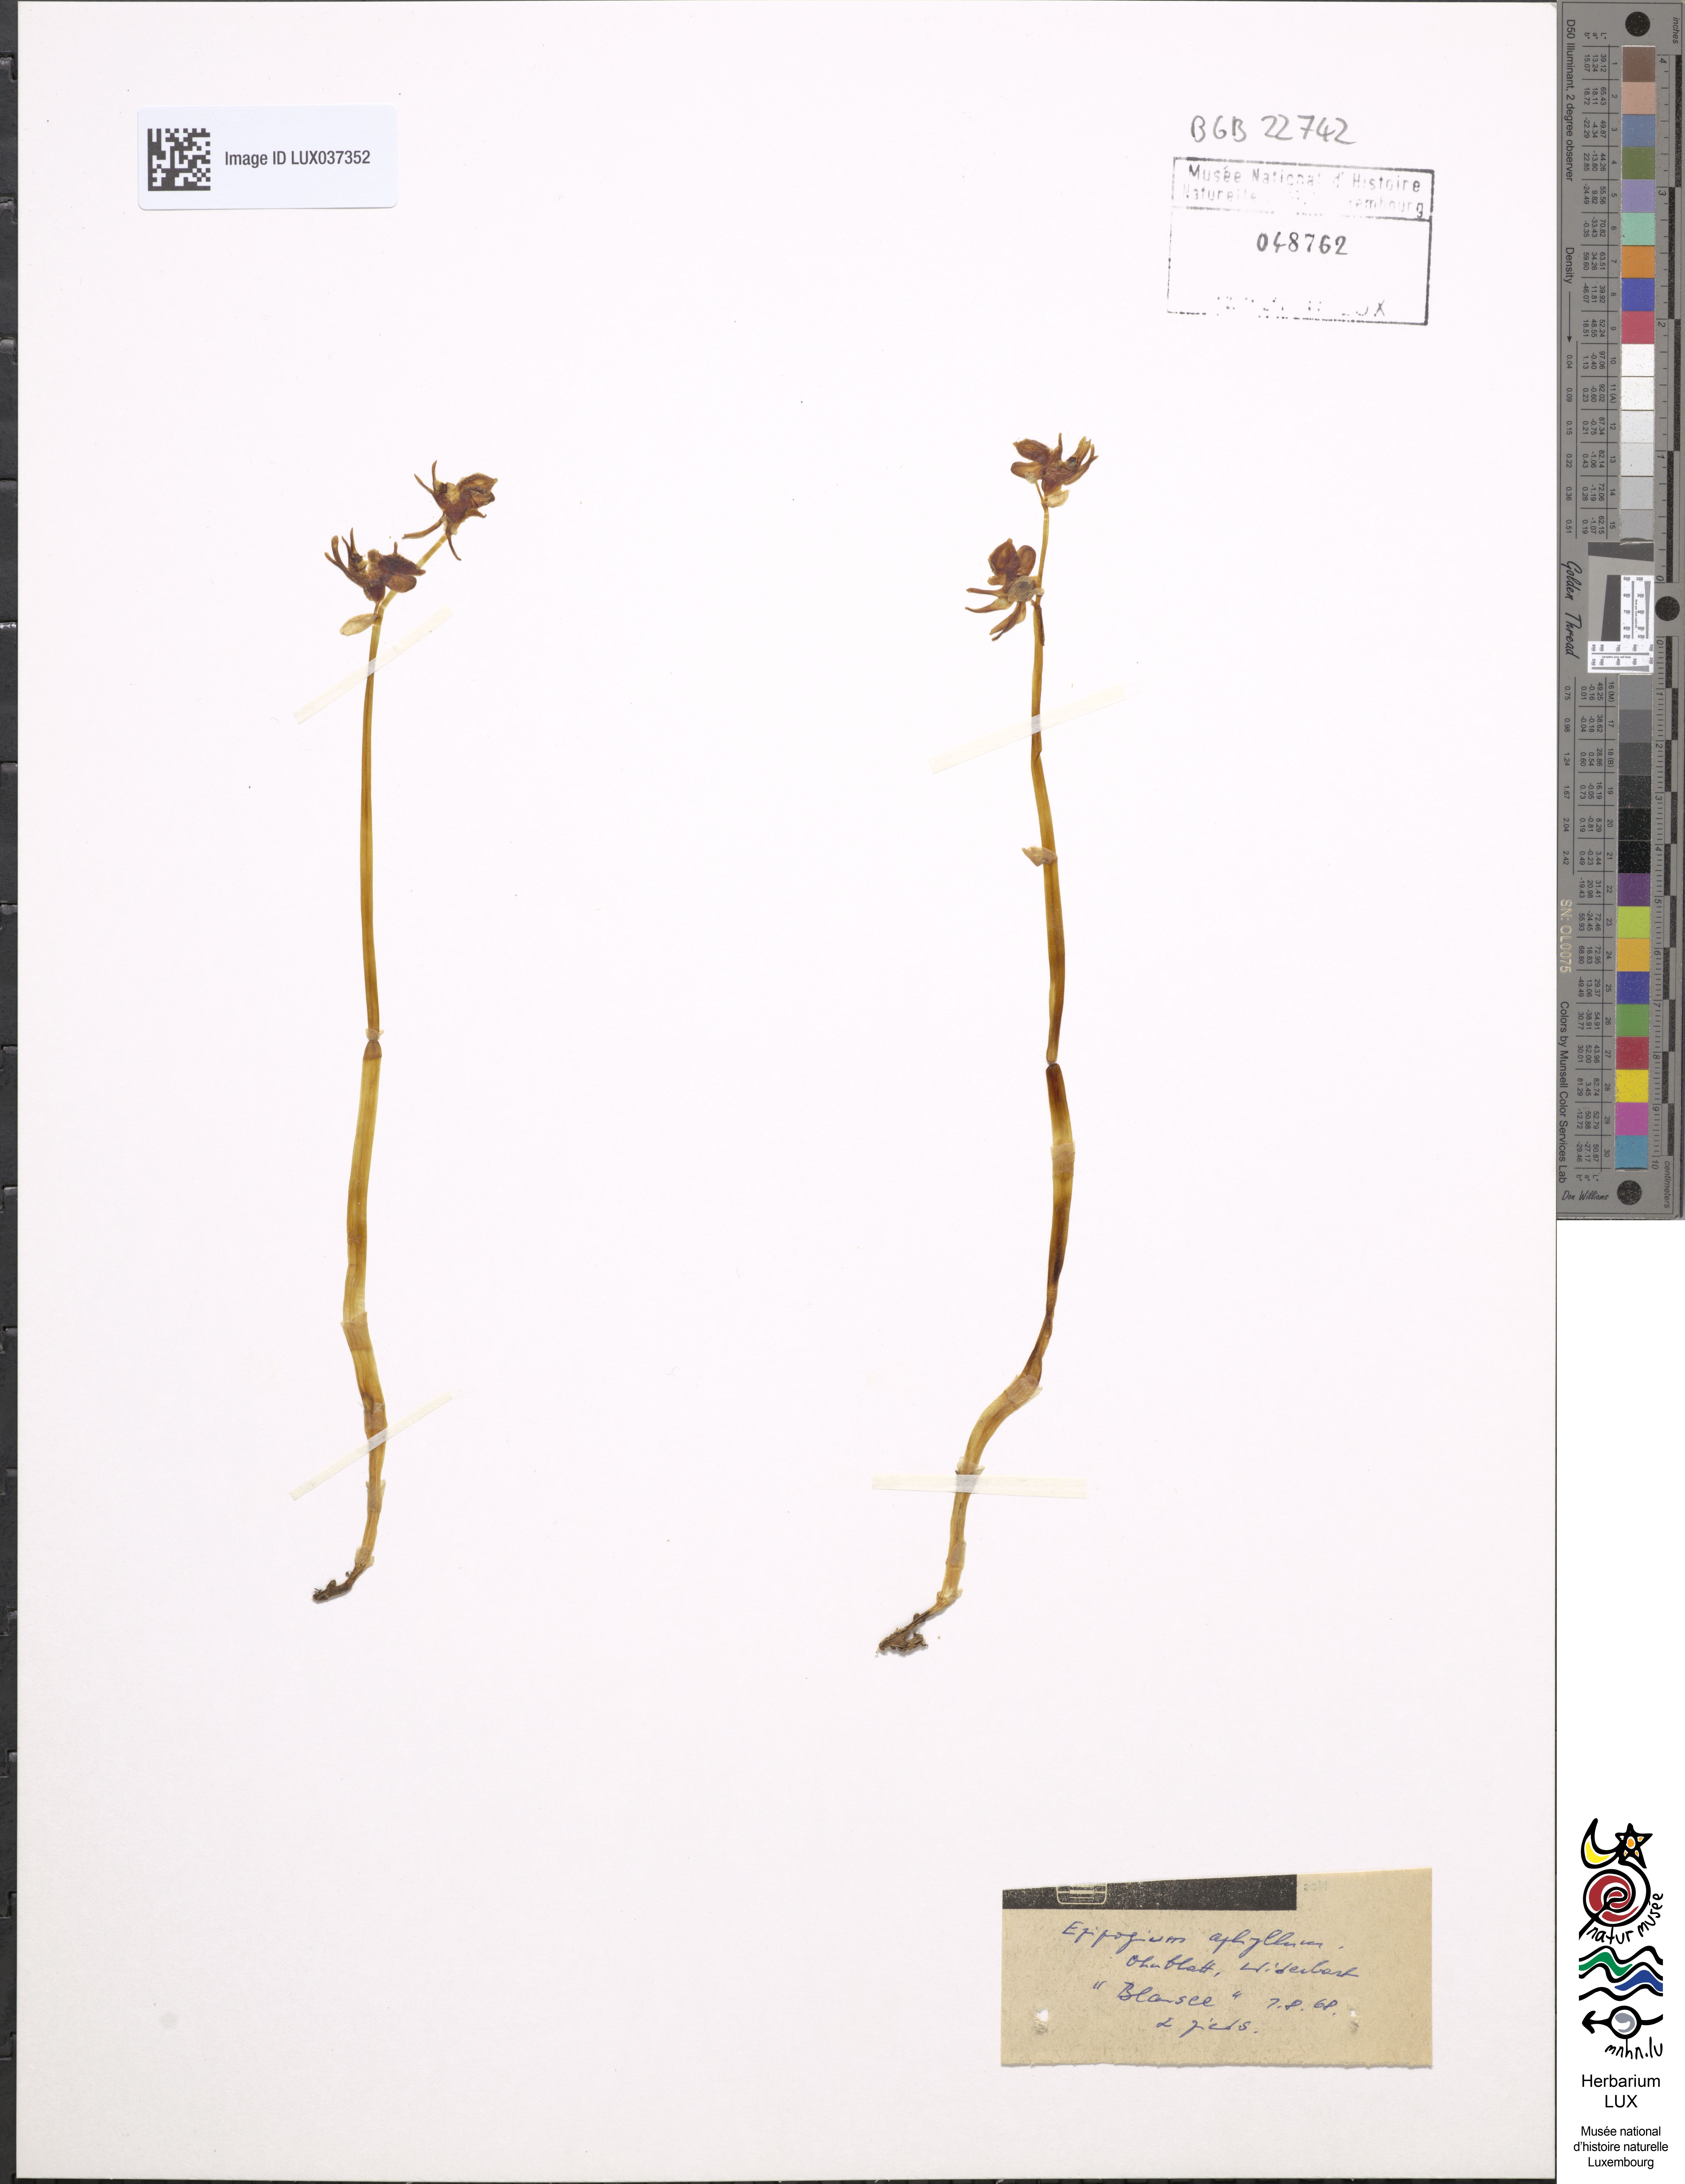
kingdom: Plantae
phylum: Tracheophyta
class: Liliopsida
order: Asparagales
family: Orchidaceae
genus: Epipogium
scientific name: Epipogium aphyllum
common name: Ghost orchid
